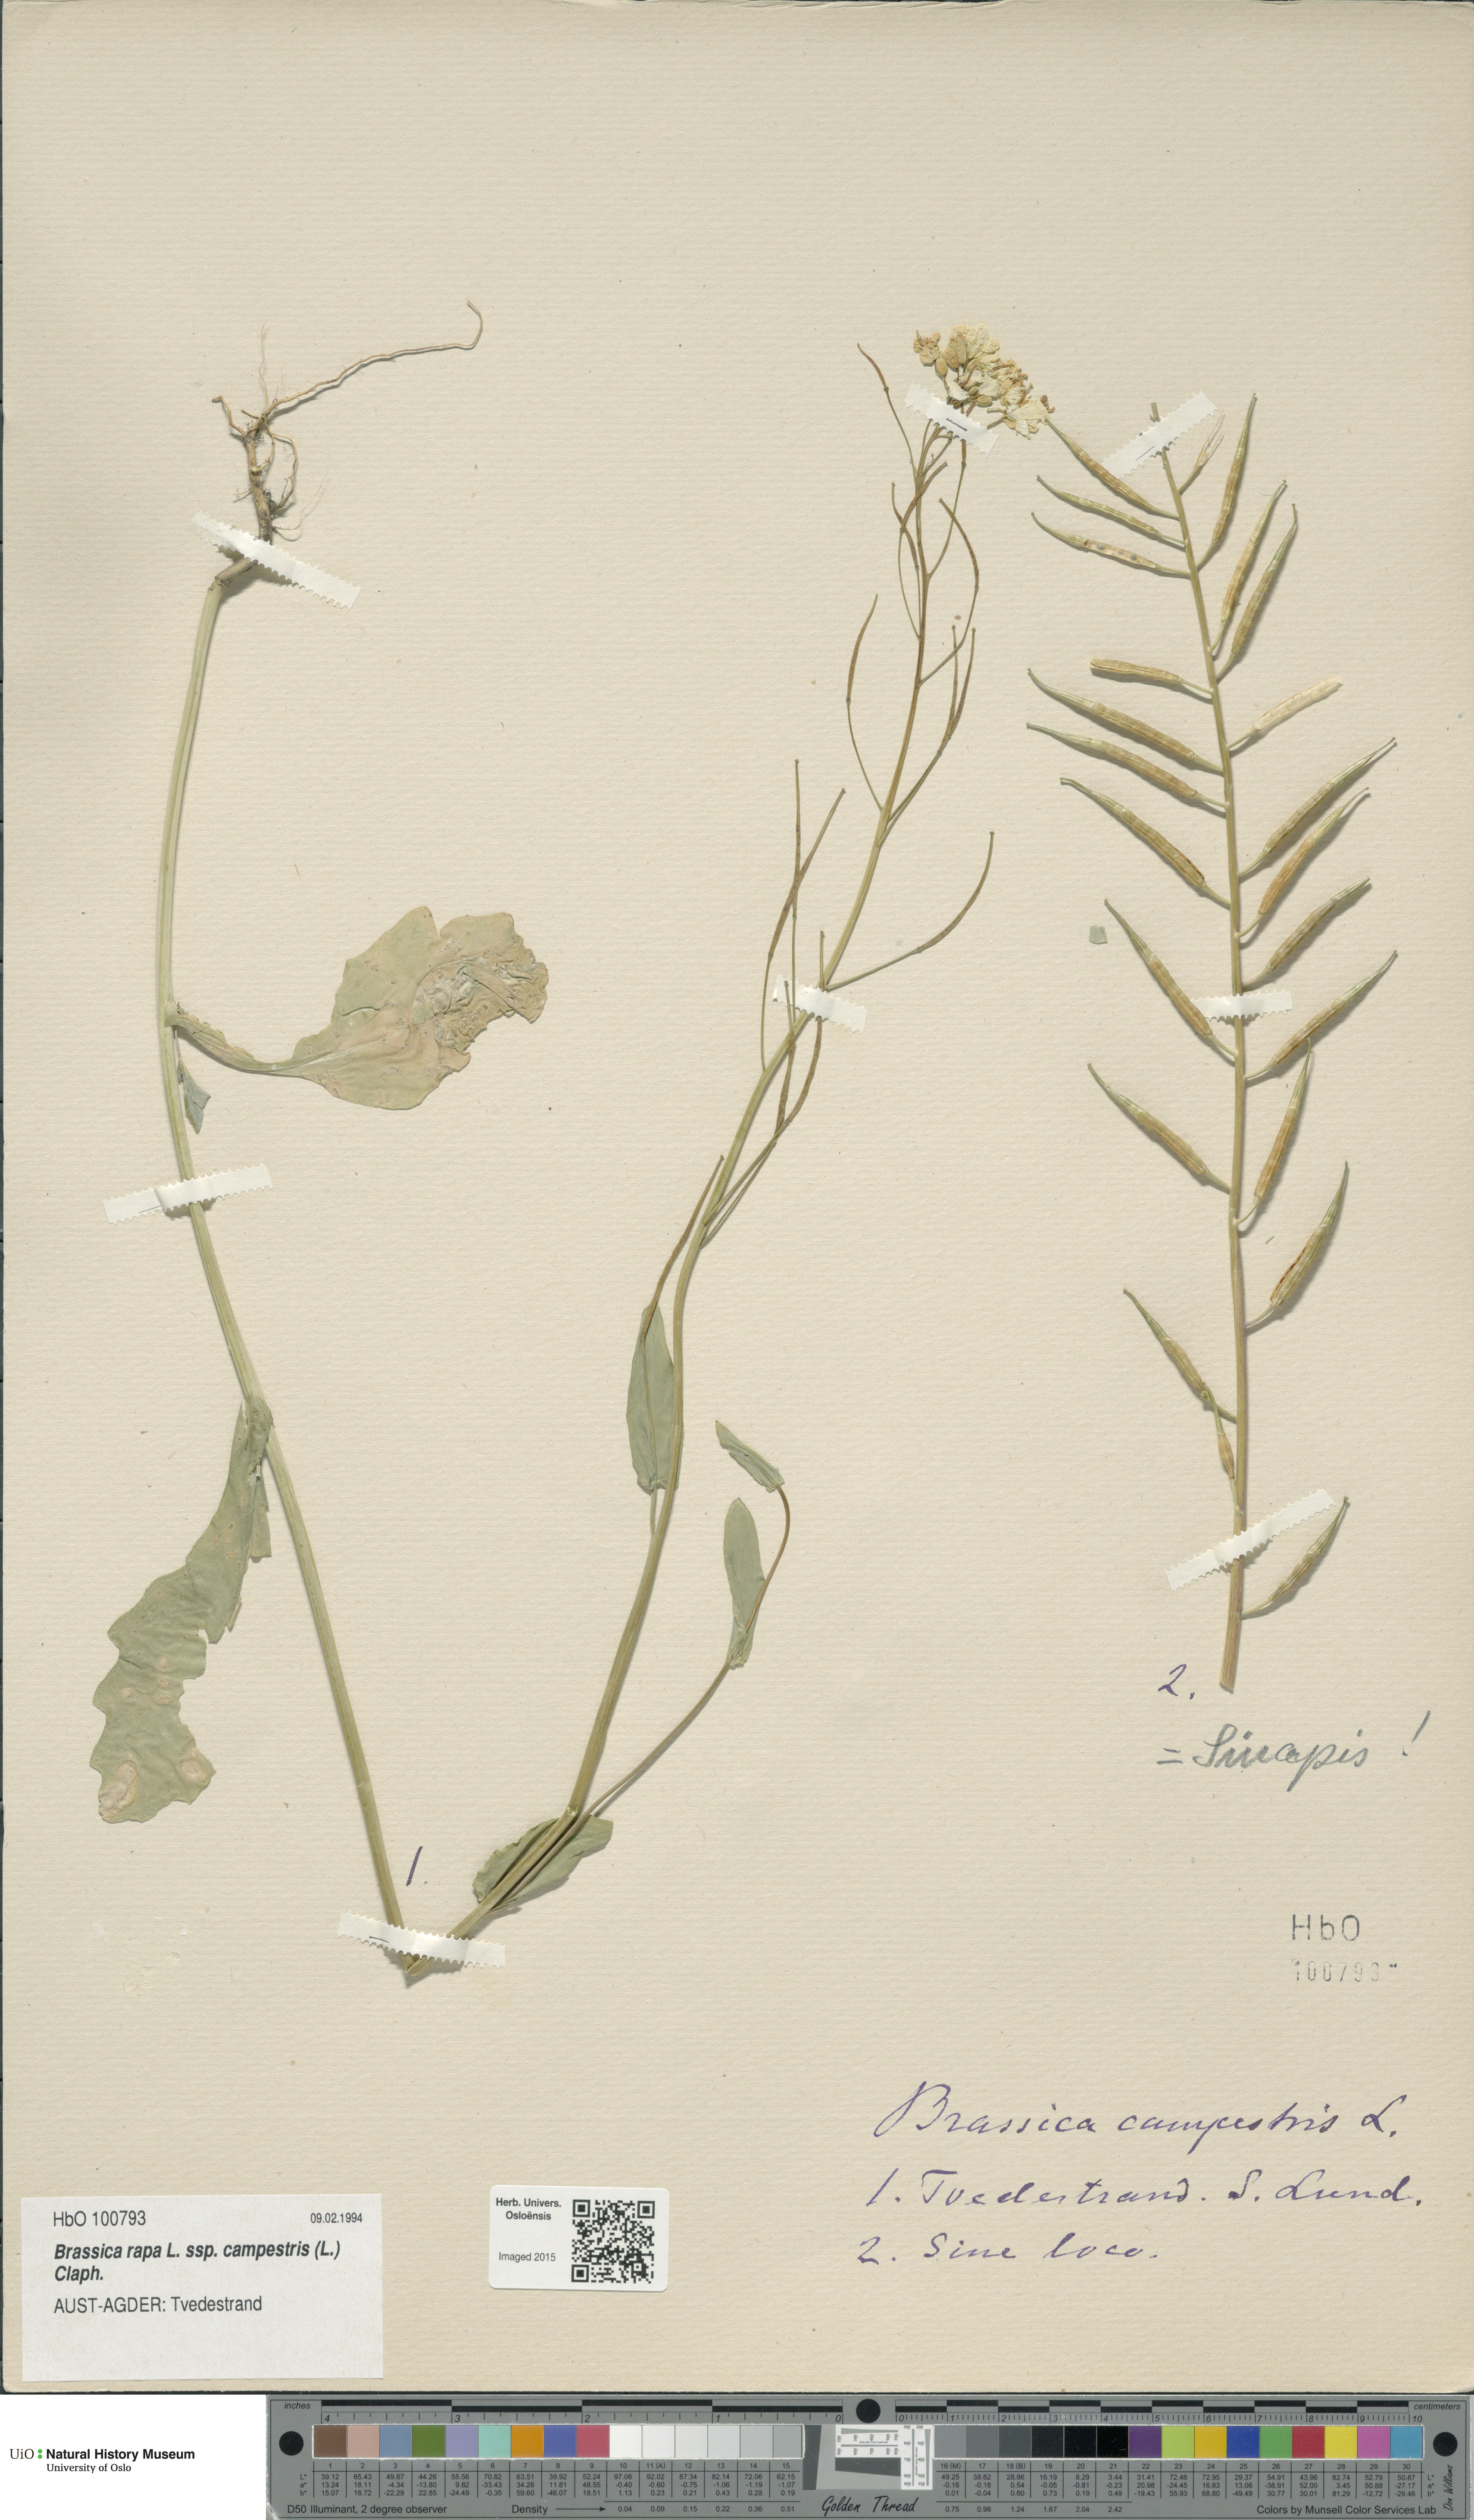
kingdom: Plantae
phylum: Tracheophyta
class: Magnoliopsida
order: Brassicales
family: Brassicaceae
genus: Brassica
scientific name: Brassica rapa
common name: Field mustard
